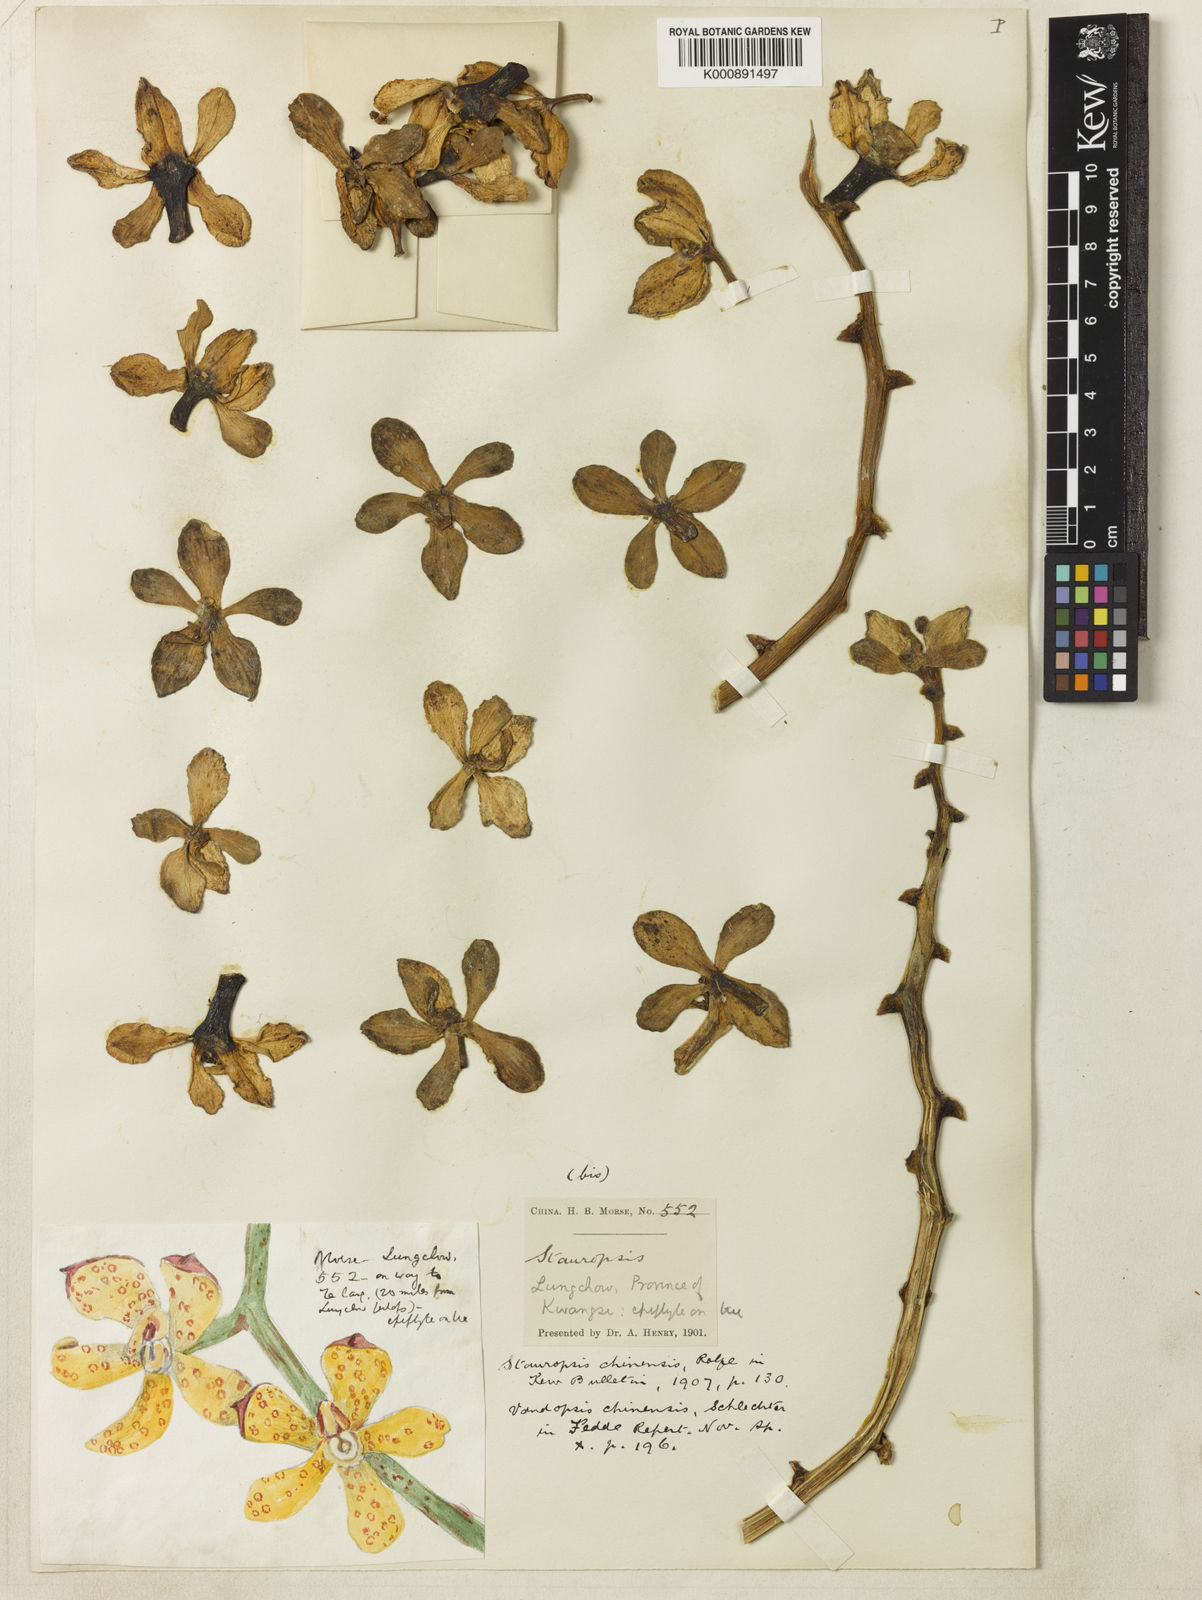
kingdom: Plantae
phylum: Tracheophyta
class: Liliopsida
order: Asparagales
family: Orchidaceae
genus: Vandopsis
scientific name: Vandopsis gigantea
